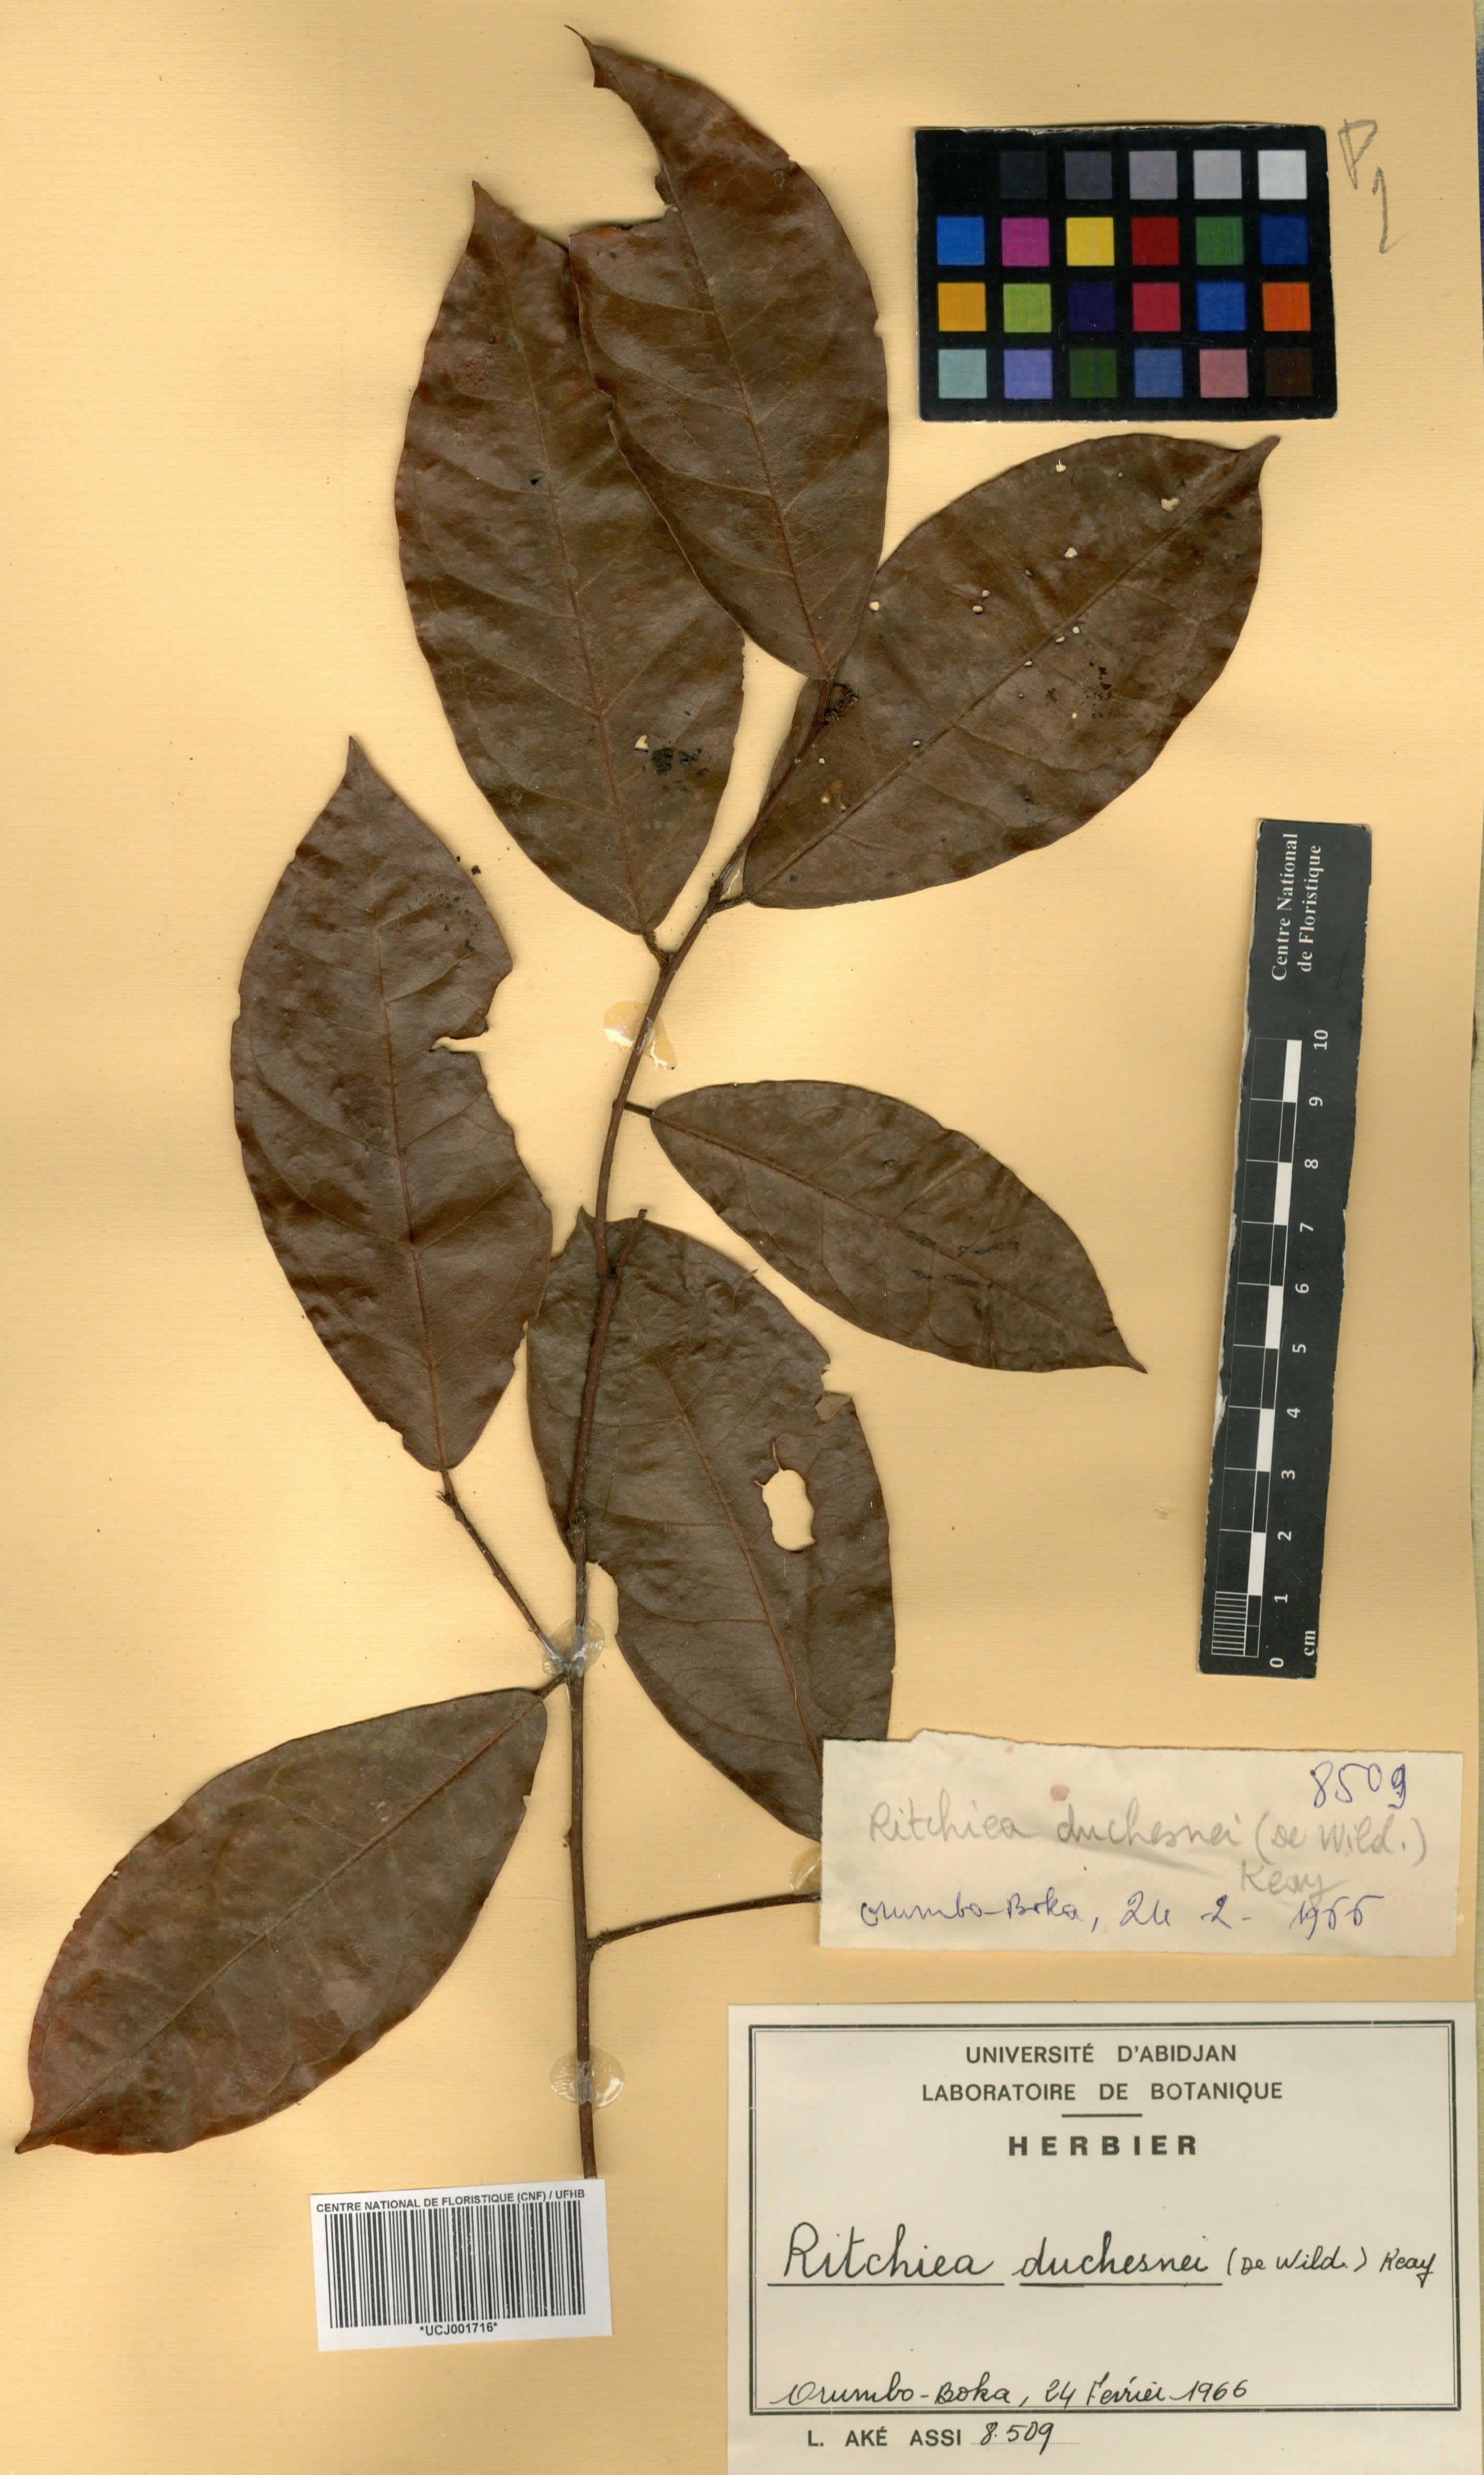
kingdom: Plantae
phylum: Tracheophyta
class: Magnoliopsida
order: Brassicales
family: Capparaceae
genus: Maerua
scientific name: Maerua duchesnei
